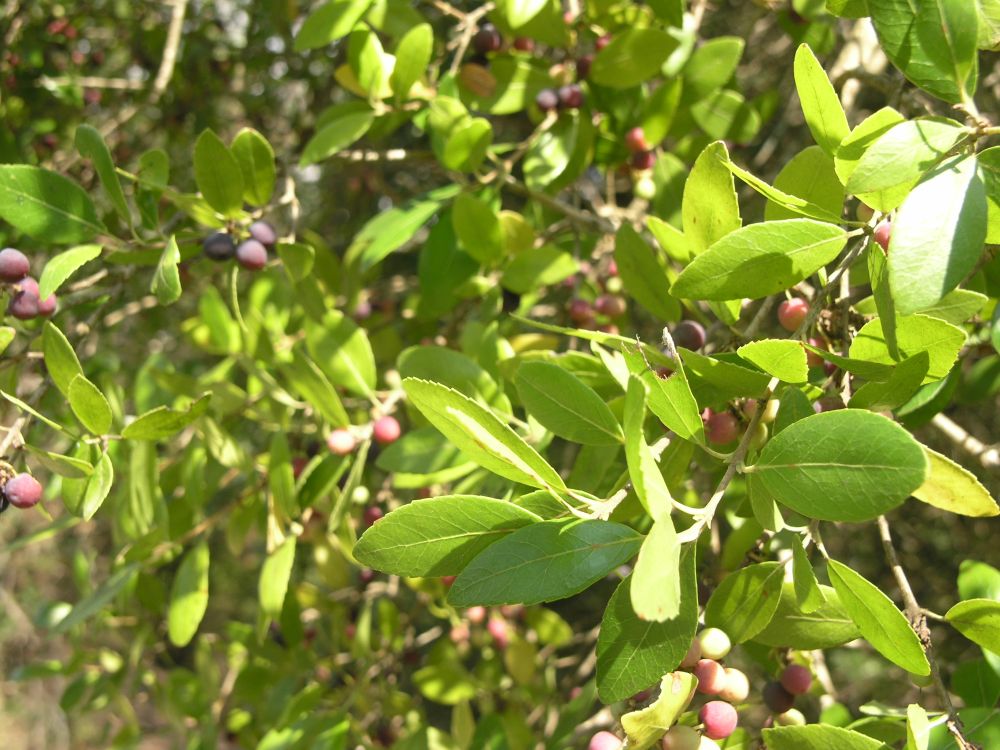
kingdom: Plantae
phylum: Tracheophyta
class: Magnoliopsida
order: Myrtales
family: Myrtaceae
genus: Myrtus
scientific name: Myrtus communis
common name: Myrtle
